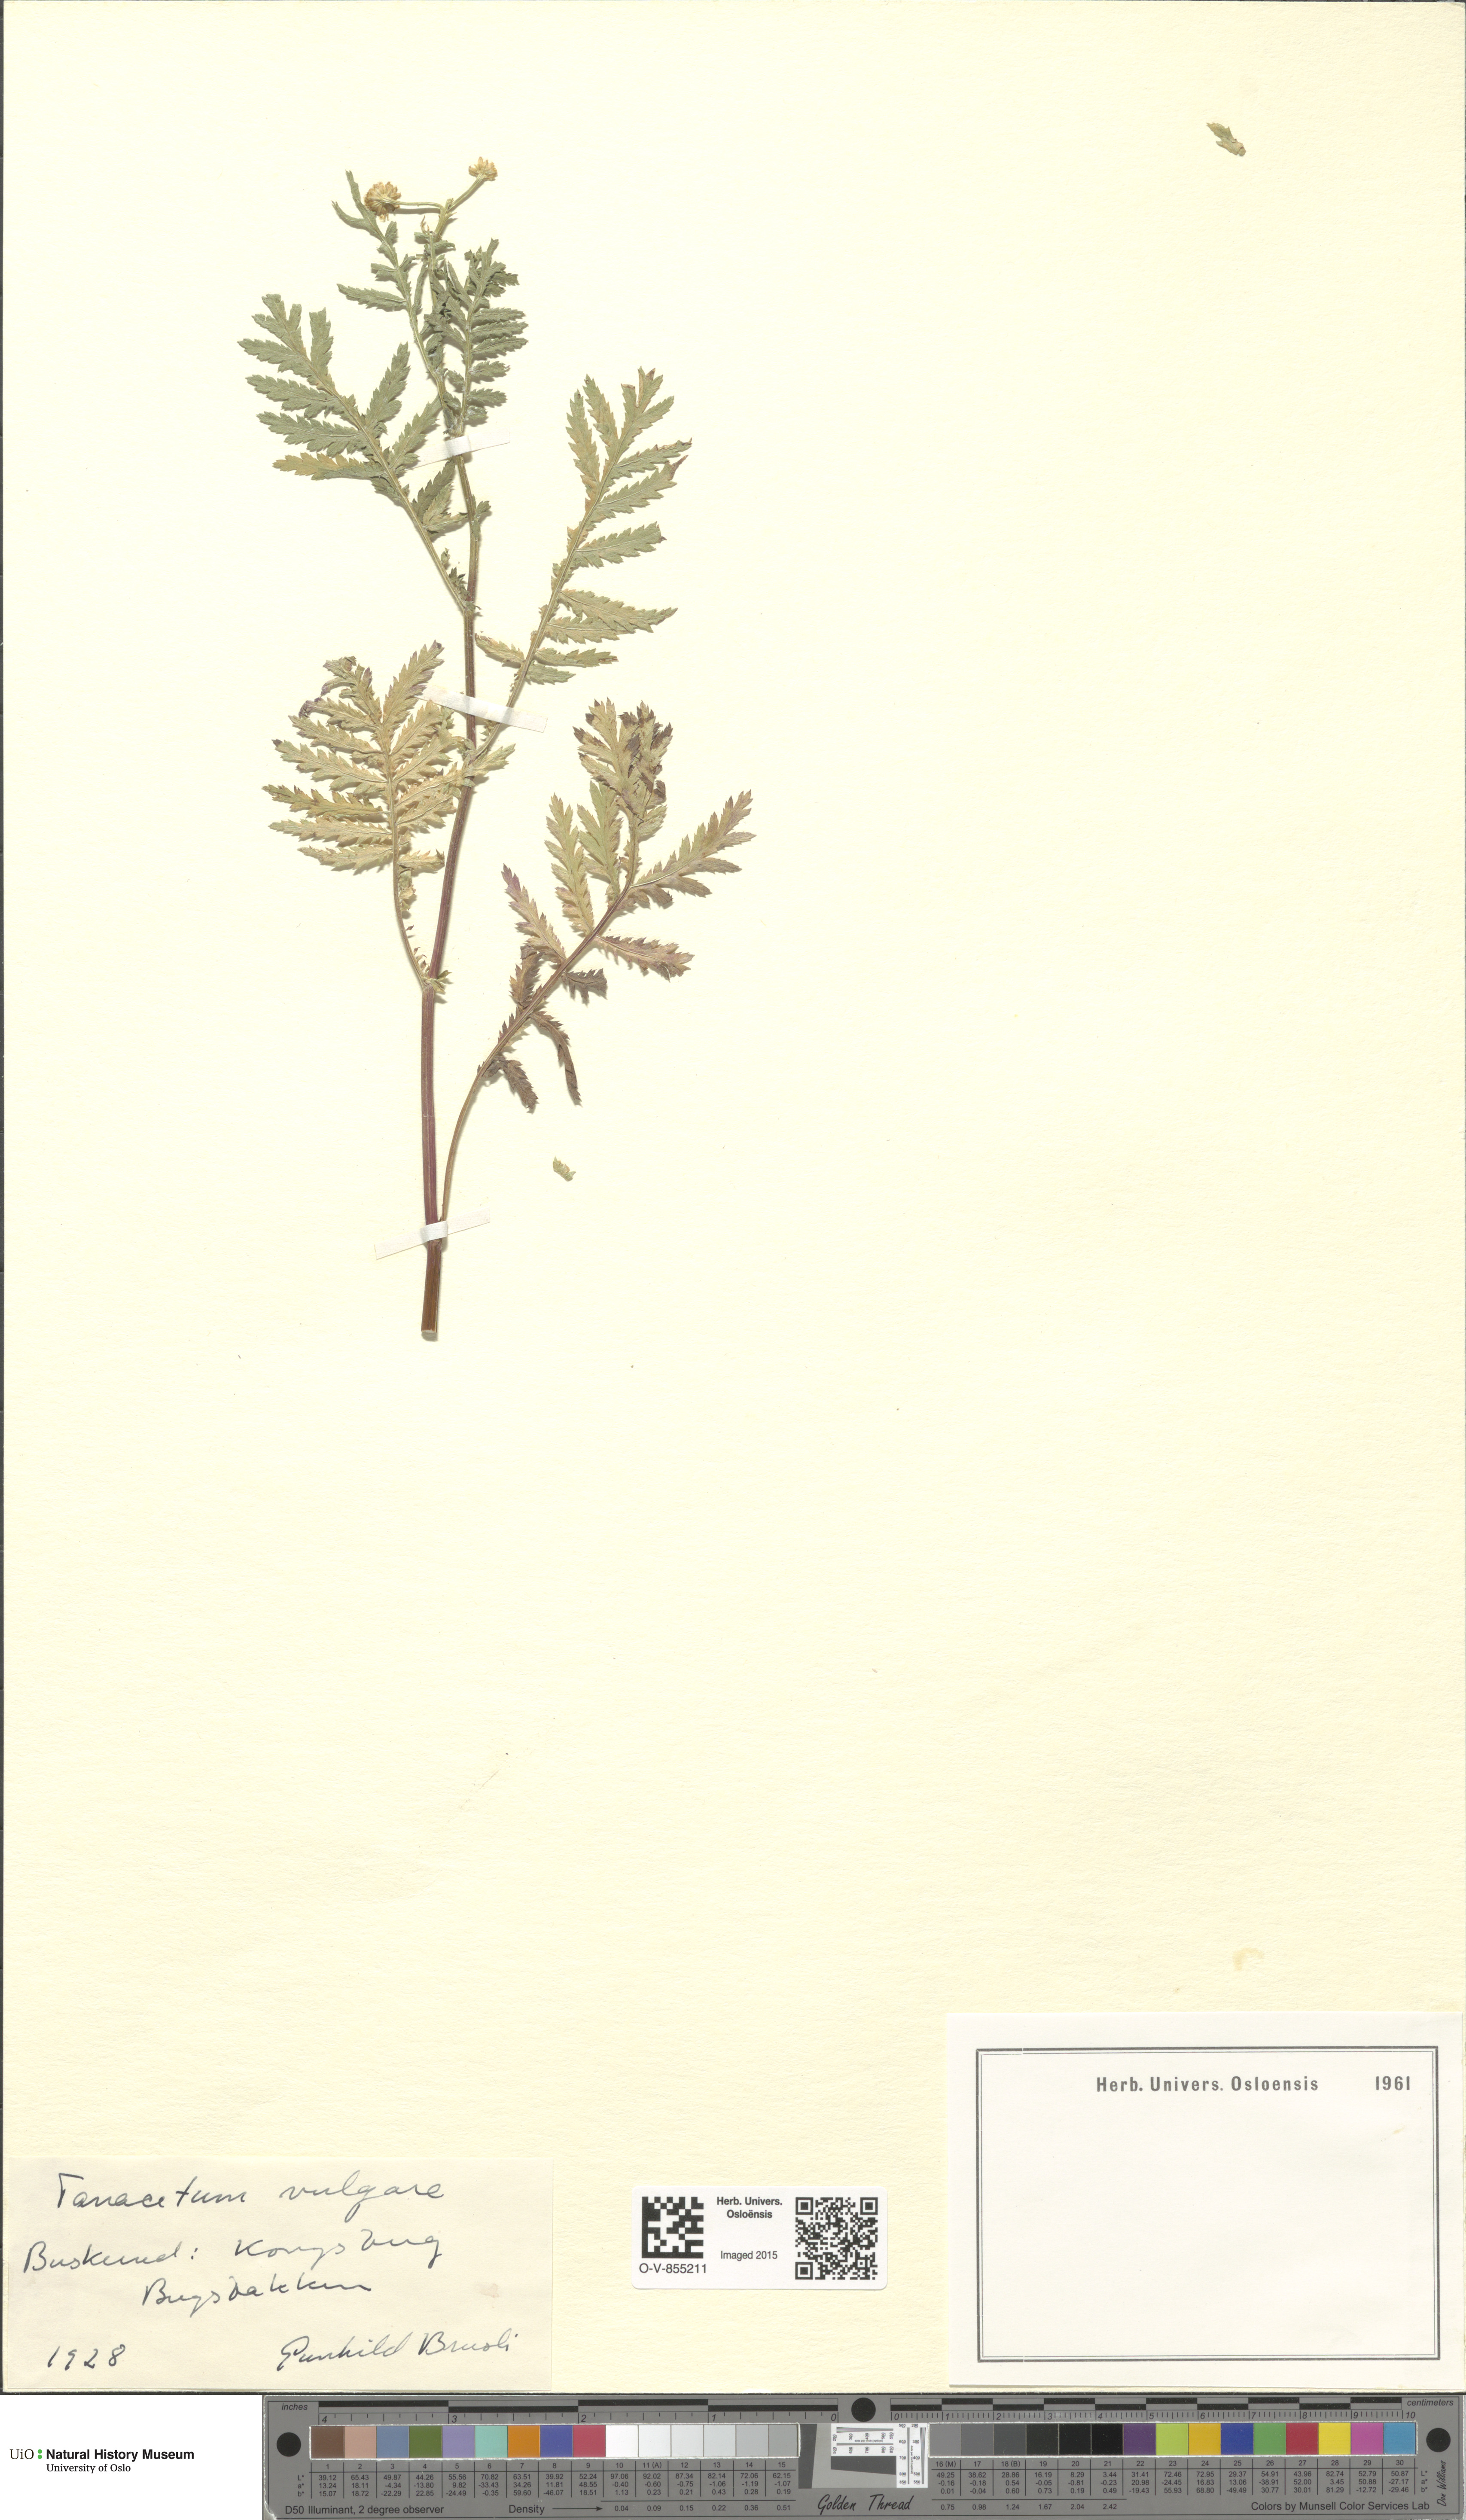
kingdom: Plantae
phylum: Tracheophyta
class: Magnoliopsida
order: Asterales
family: Asteraceae
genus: Tanacetum
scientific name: Tanacetum vulgare
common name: Common tansy
